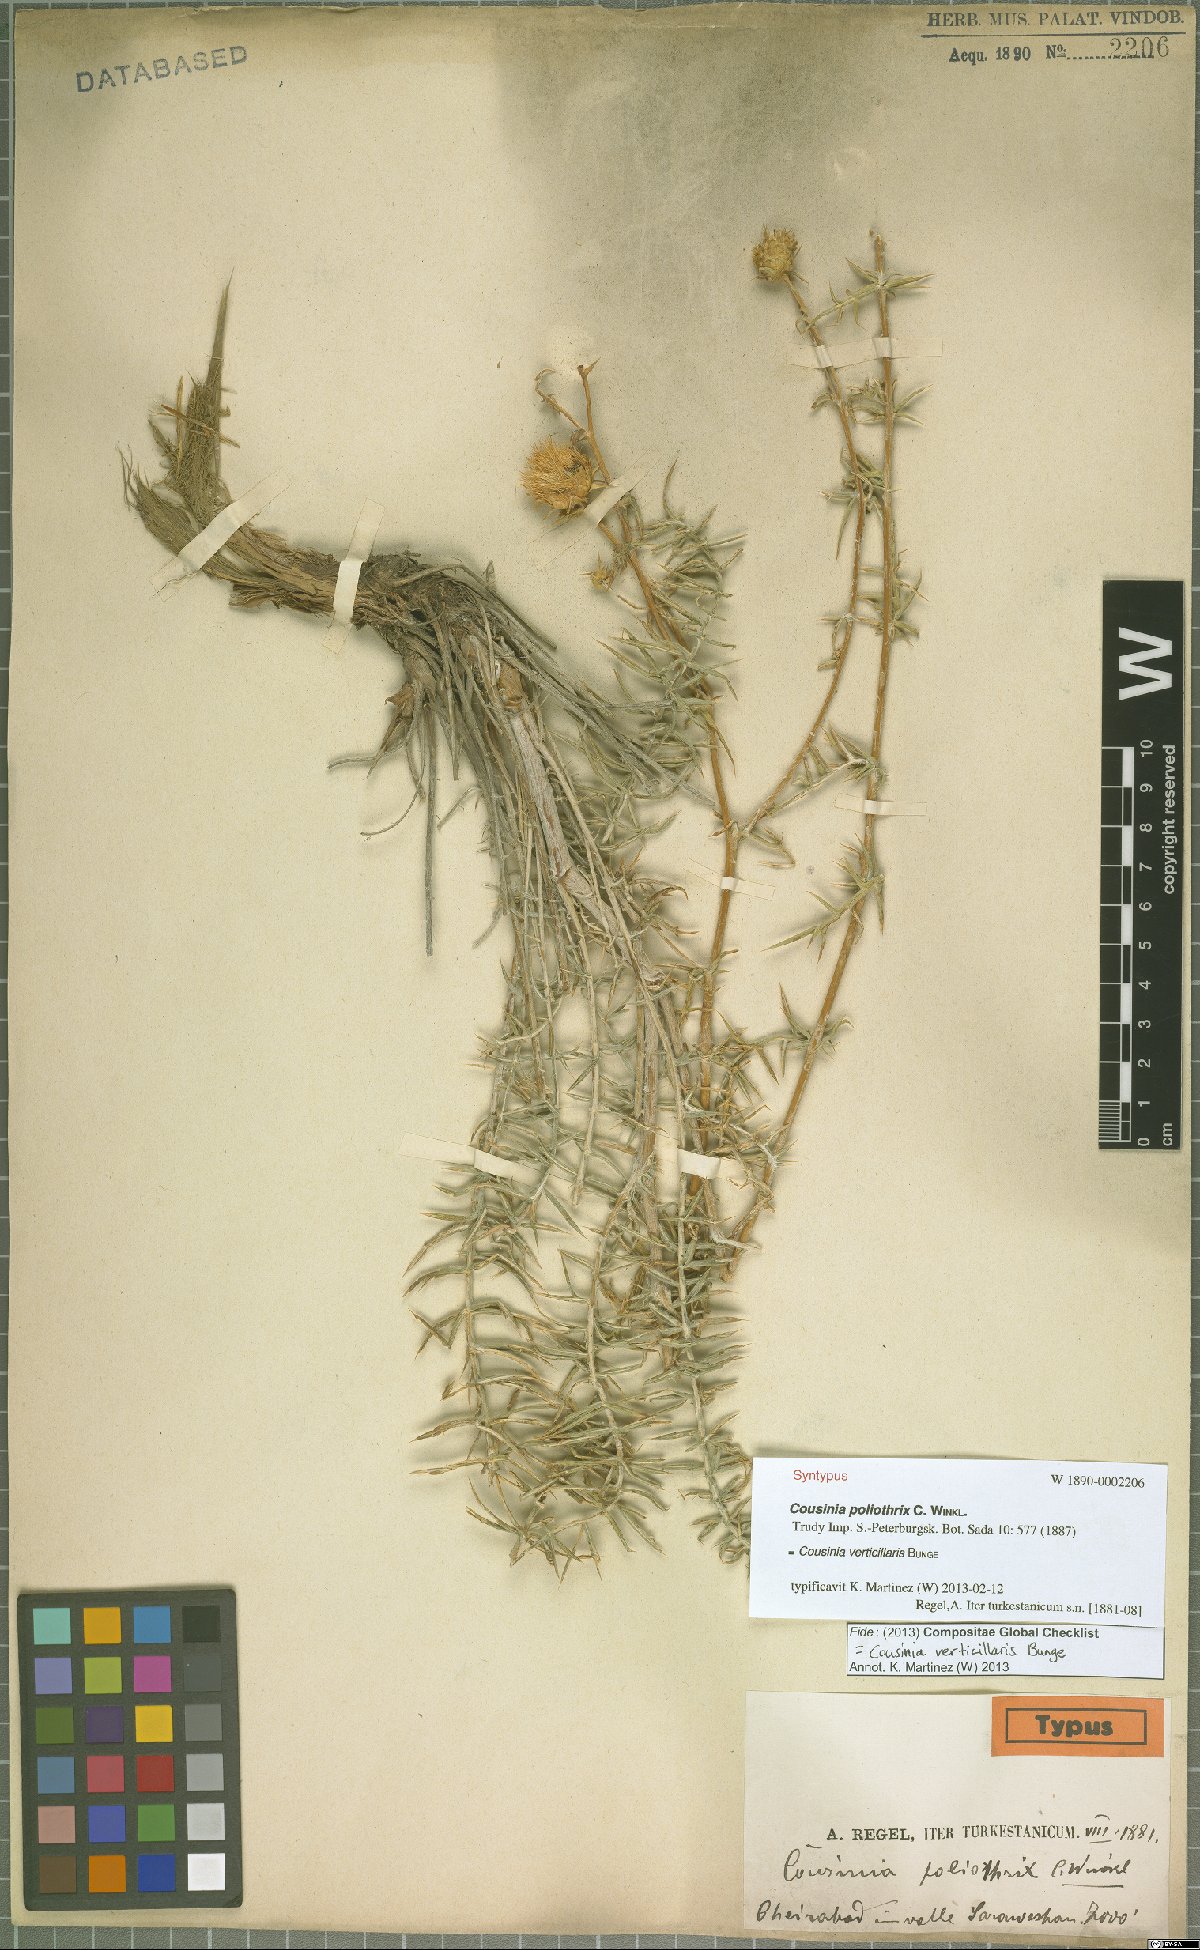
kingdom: Plantae
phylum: Tracheophyta
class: Magnoliopsida
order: Asterales
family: Asteraceae
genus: Cousinia
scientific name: Cousinia verticillaris
